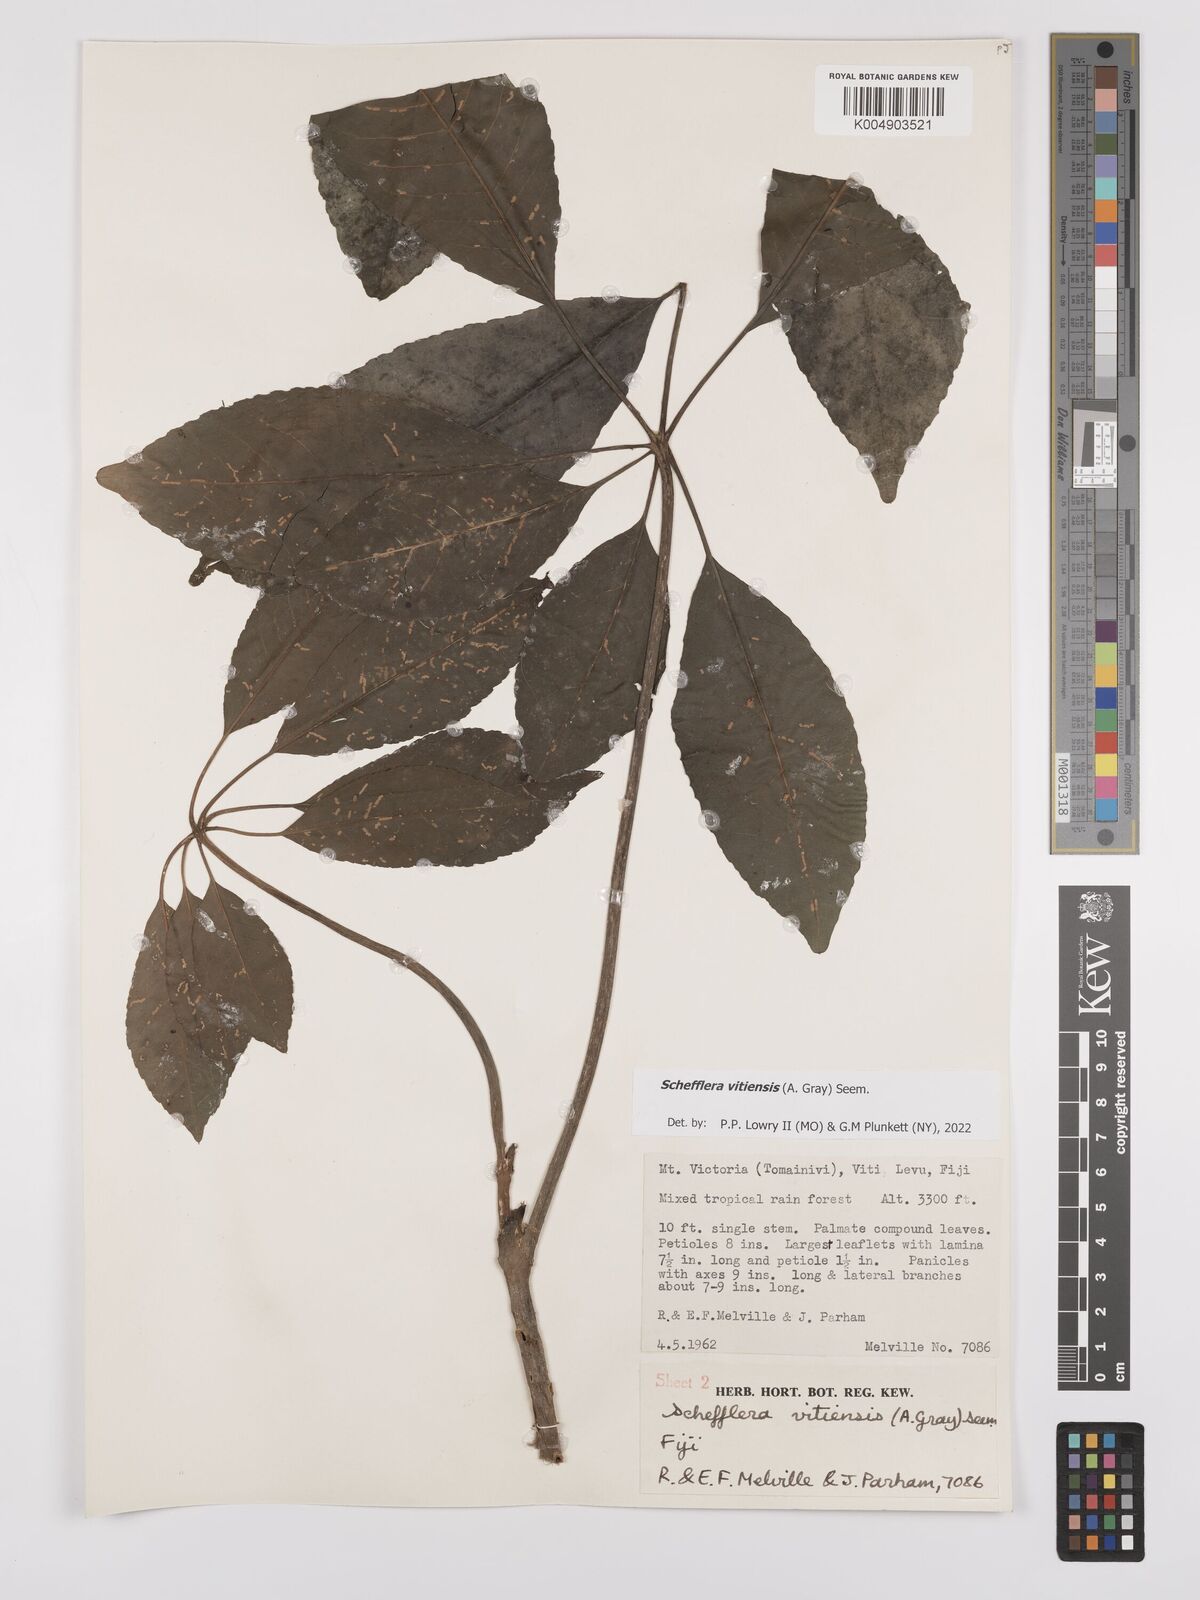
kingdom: Plantae
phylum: Tracheophyta
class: Magnoliopsida
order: Apiales
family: Araliaceae
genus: Schefflera
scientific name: Schefflera vitiensis
